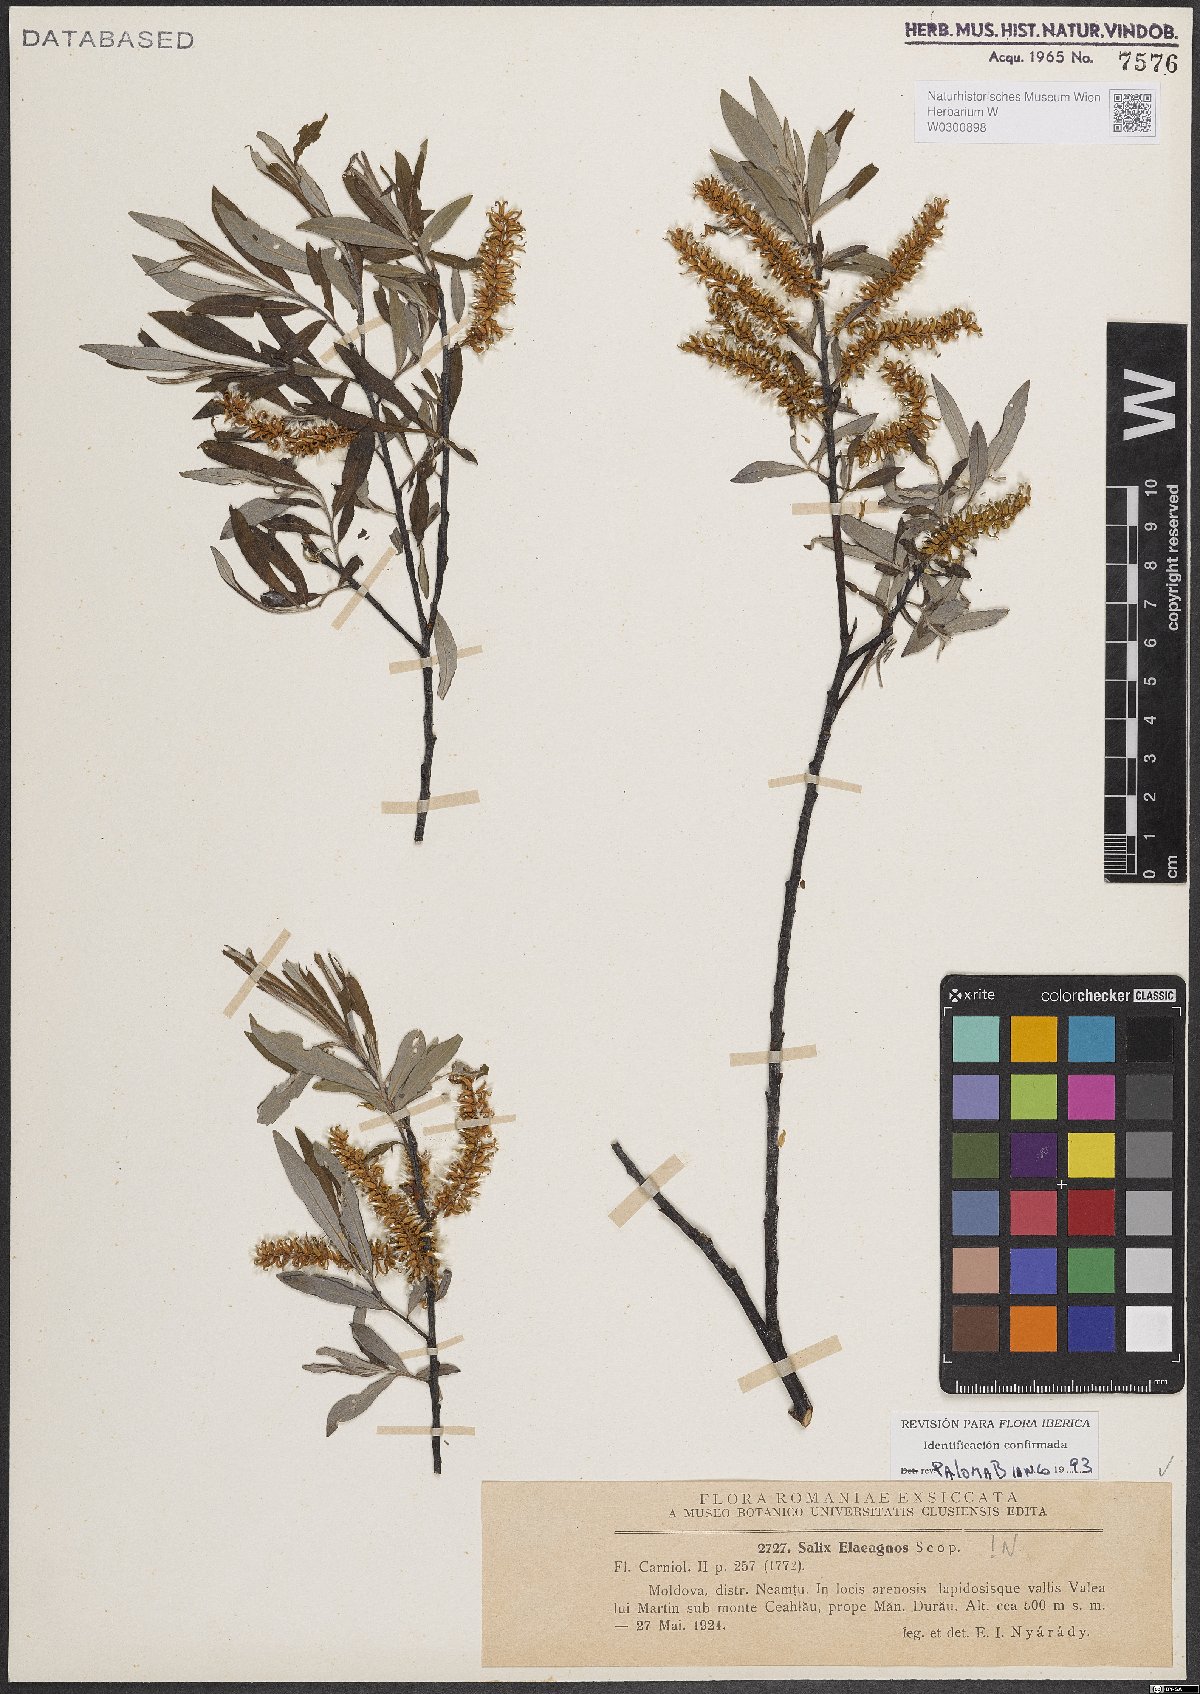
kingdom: Plantae
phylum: Tracheophyta
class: Magnoliopsida
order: Malpighiales
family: Salicaceae
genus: Salix
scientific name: Salix eleagnos
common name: Elaeagnus willow
